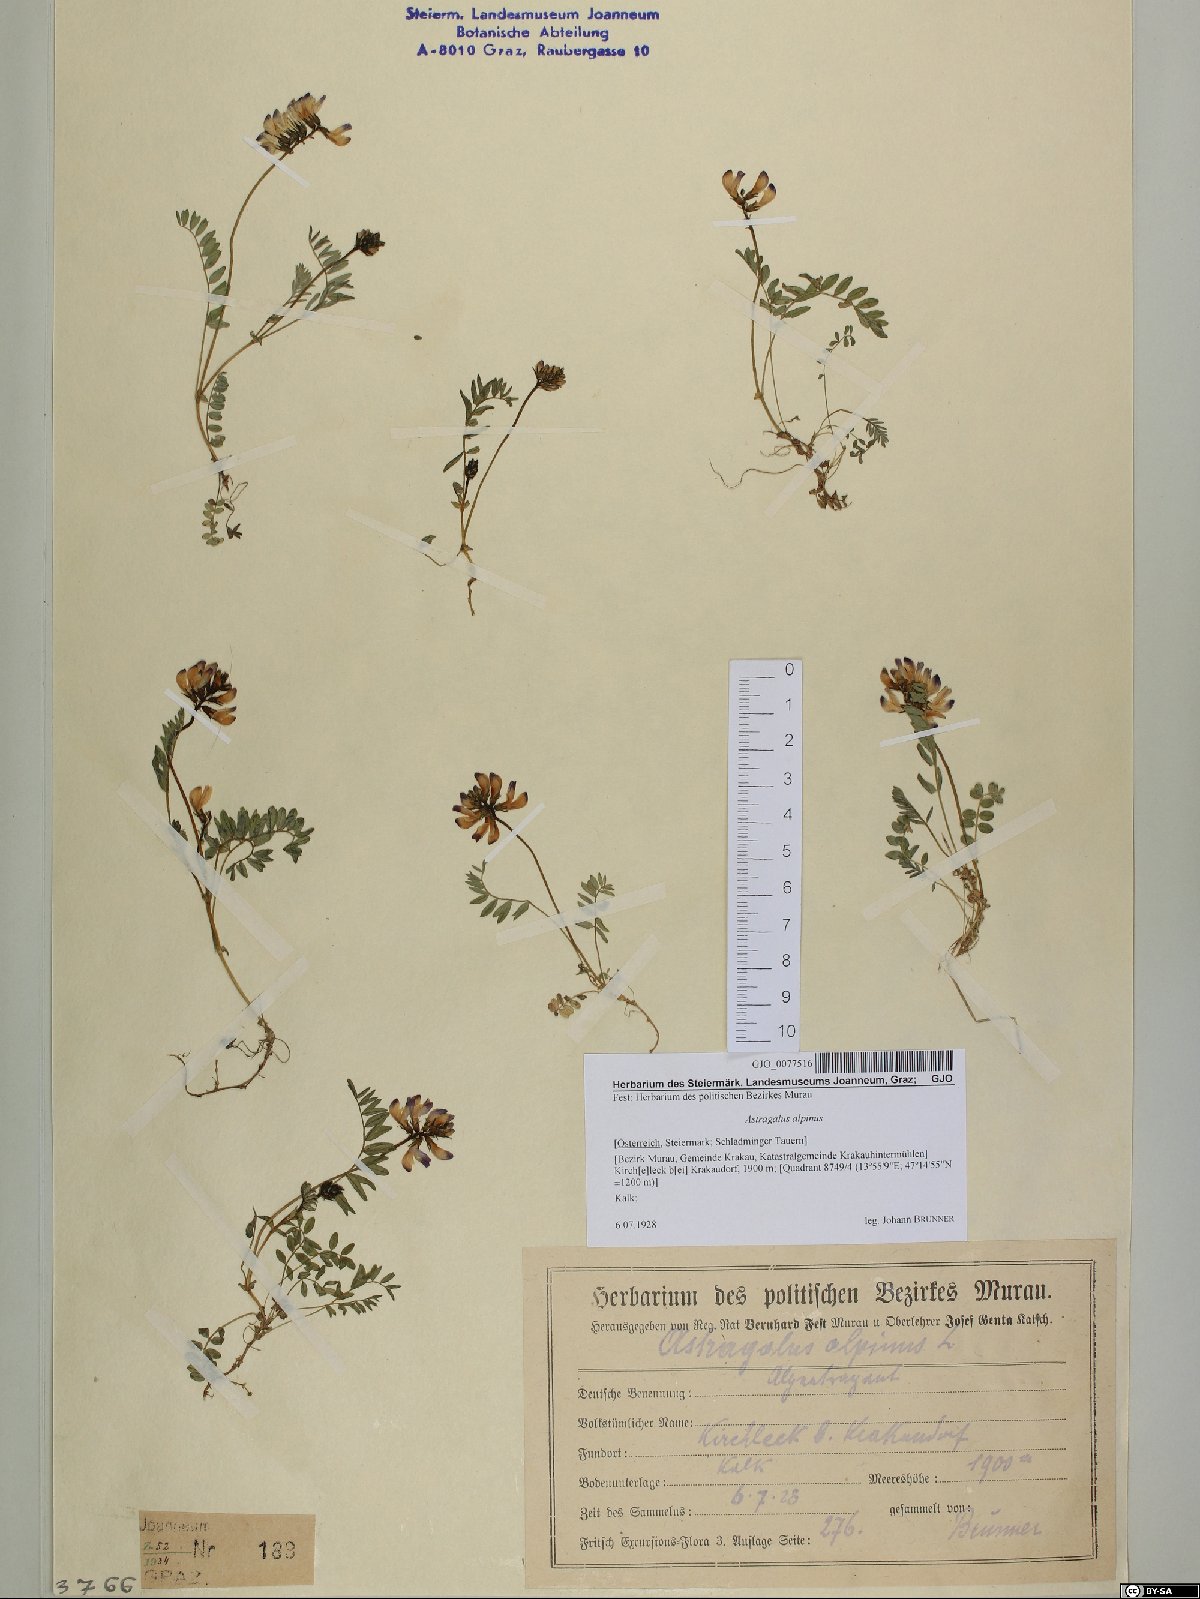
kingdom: Plantae
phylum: Tracheophyta
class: Magnoliopsida
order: Fabales
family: Fabaceae
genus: Astragalus
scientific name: Astragalus alpinus
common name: Alpine milk-vetch
